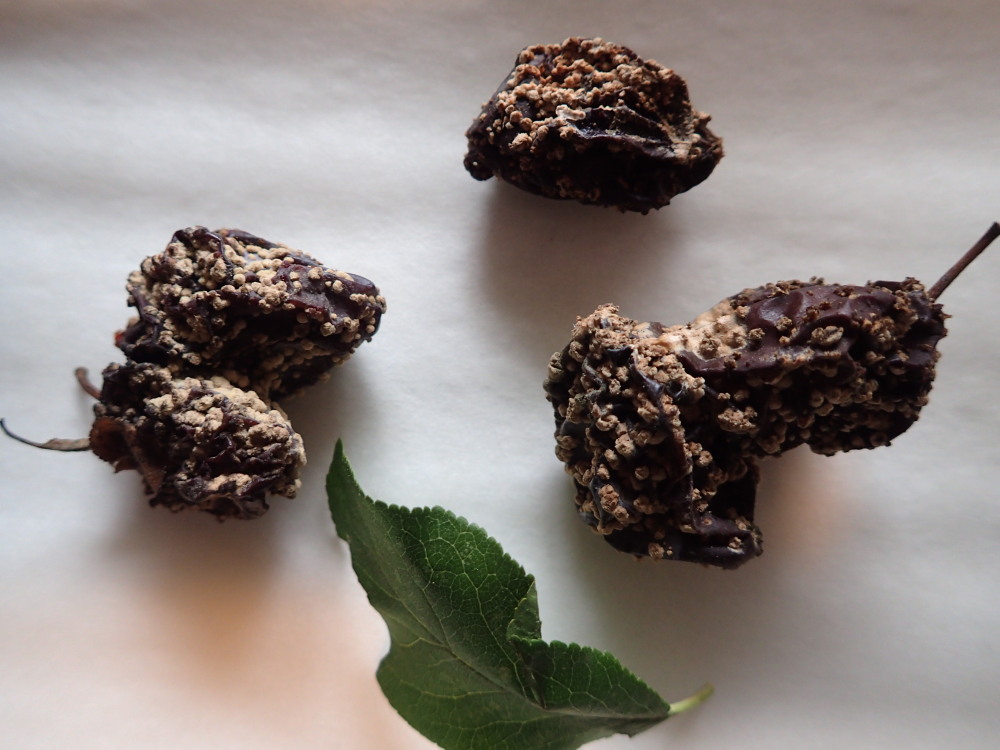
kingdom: Fungi
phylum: Ascomycota
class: Leotiomycetes
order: Helotiales
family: Sclerotiniaceae
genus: Monilinia
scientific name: Monilinia laxa
